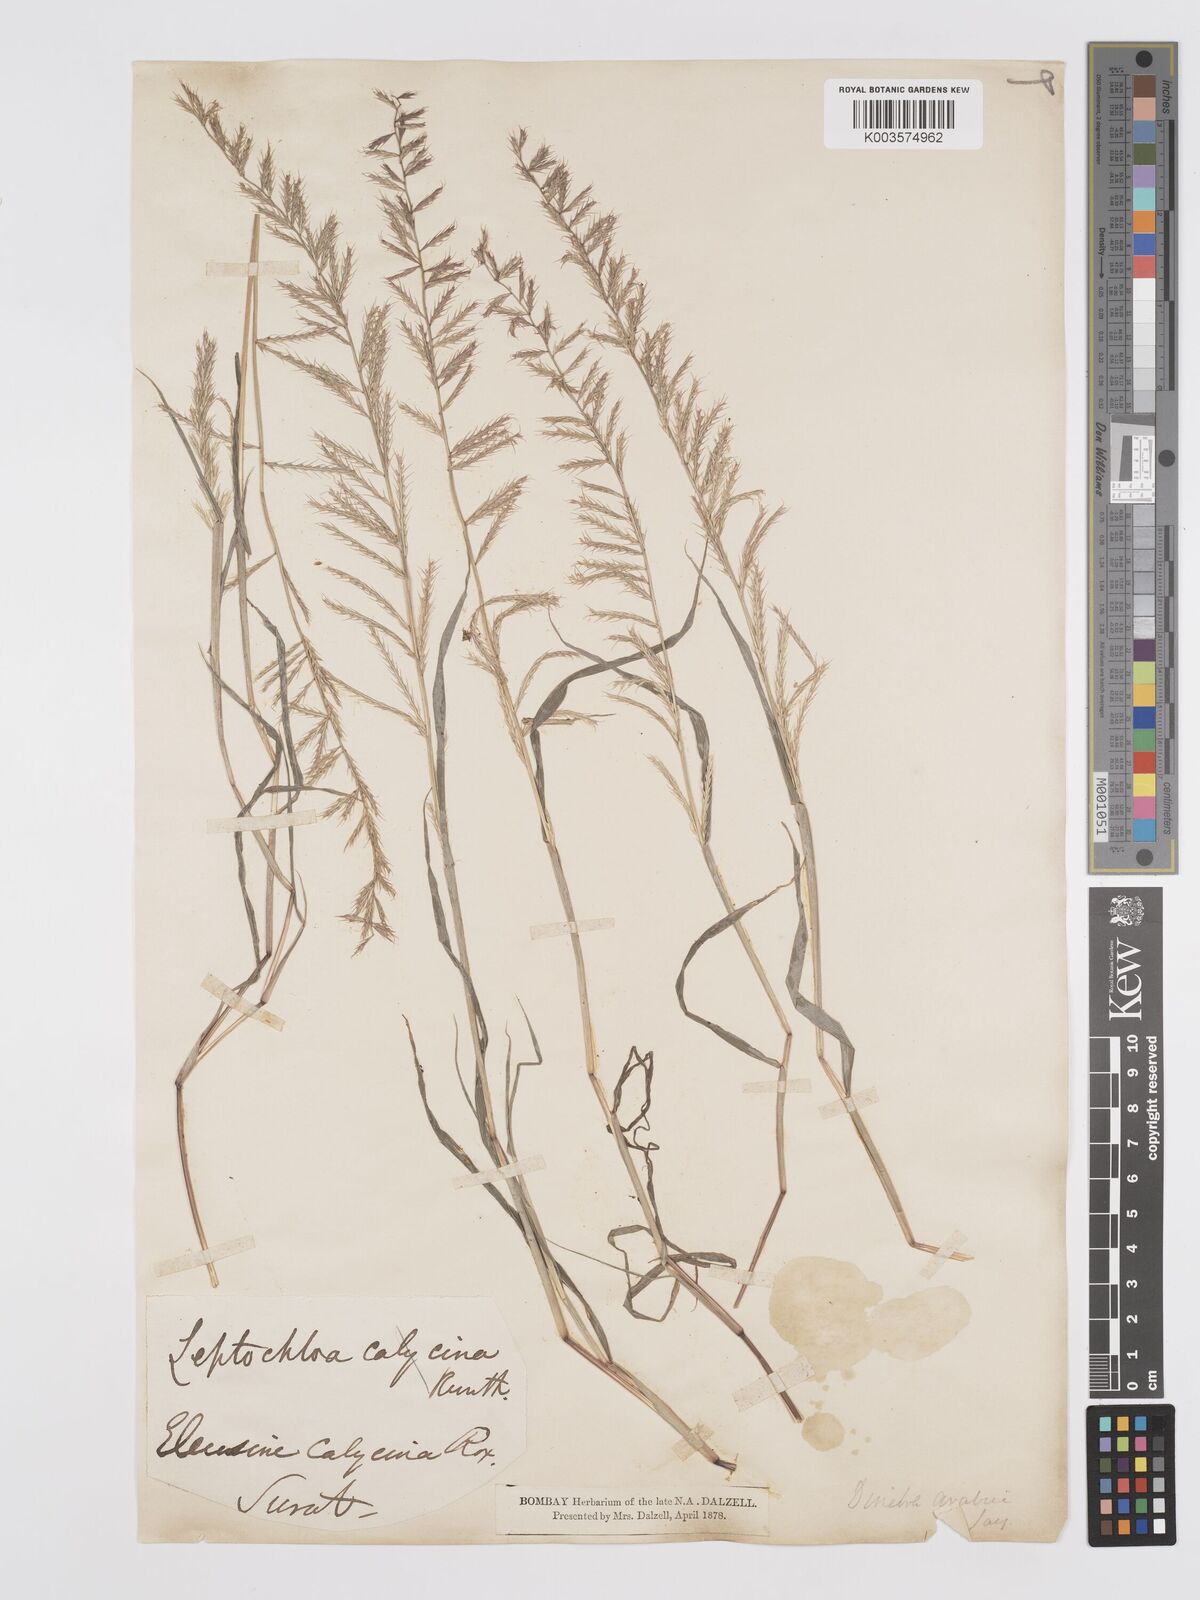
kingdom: Plantae
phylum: Tracheophyta
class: Liliopsida
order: Poales
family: Poaceae
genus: Dinebra
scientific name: Dinebra retroflexa
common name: Viper grass
